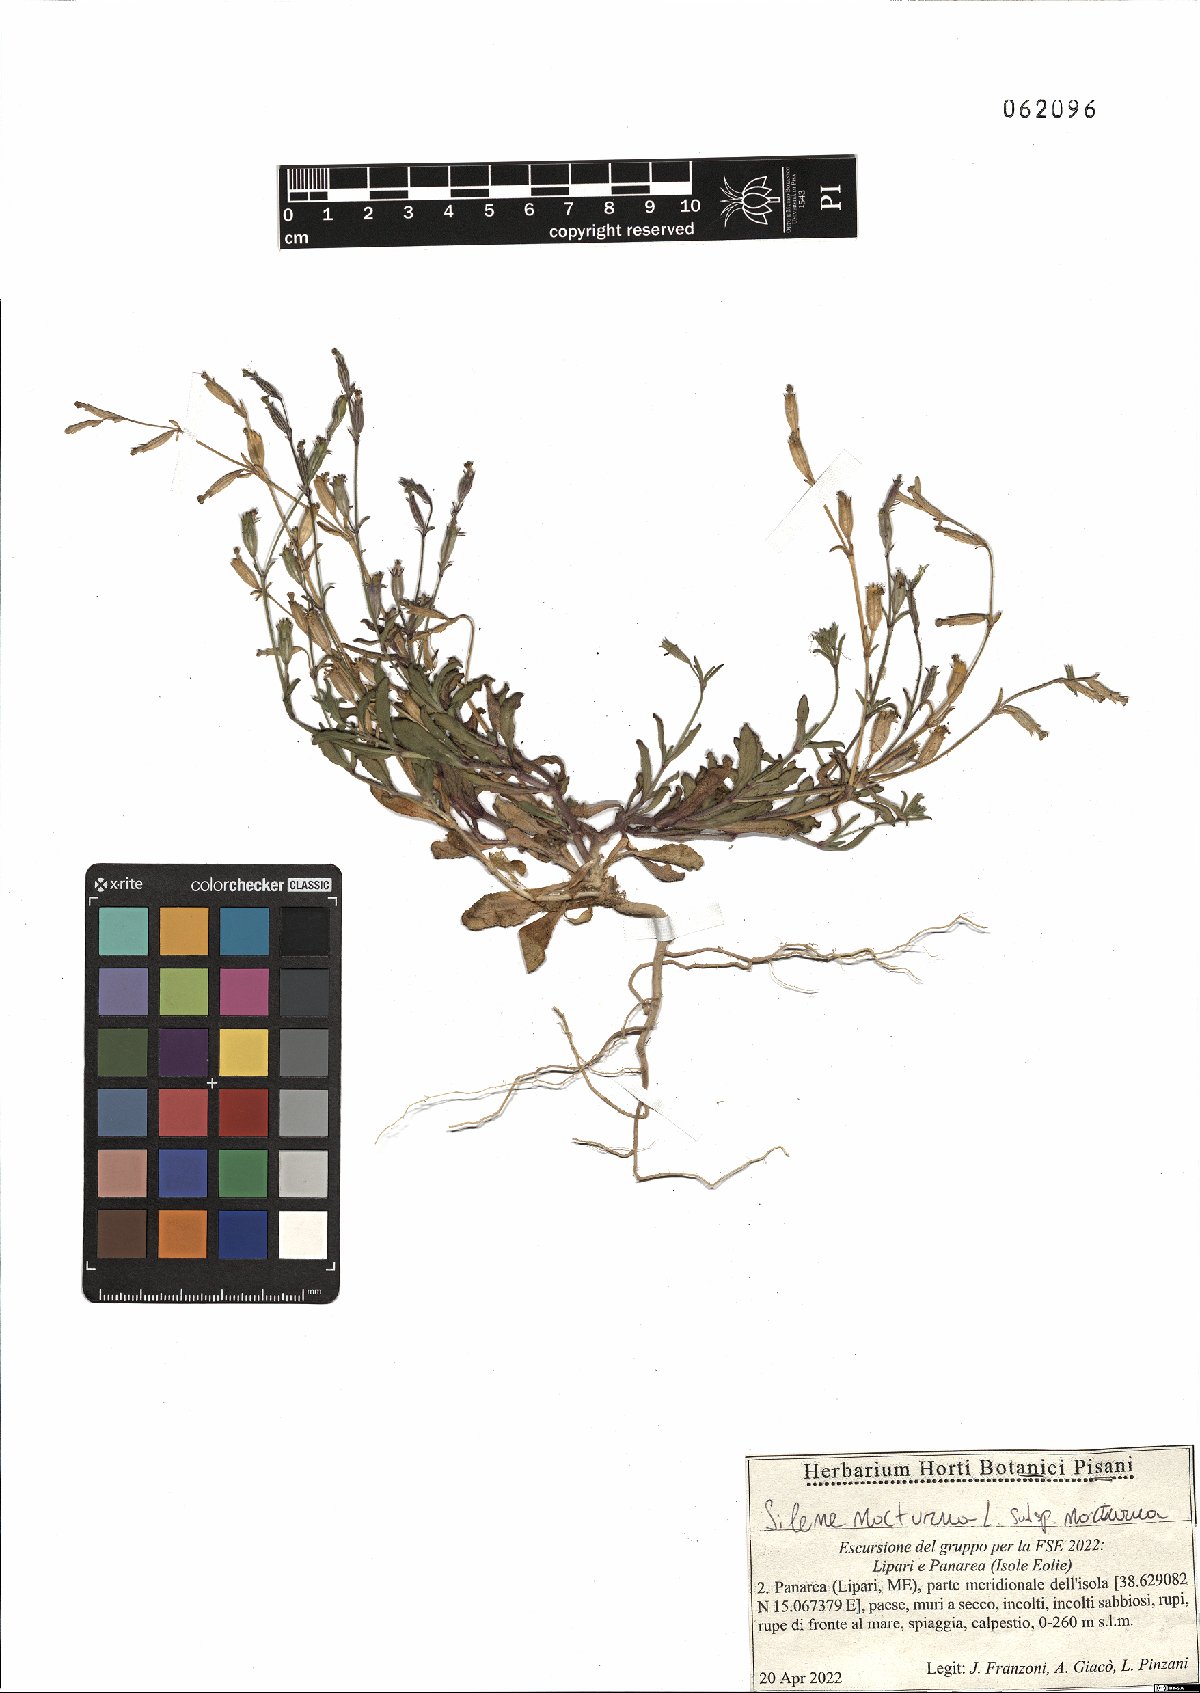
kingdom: Plantae
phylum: Tracheophyta
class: Magnoliopsida
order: Caryophyllales
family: Caryophyllaceae
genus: Silene
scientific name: Silene nocturna
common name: Mediterranean catchfly
